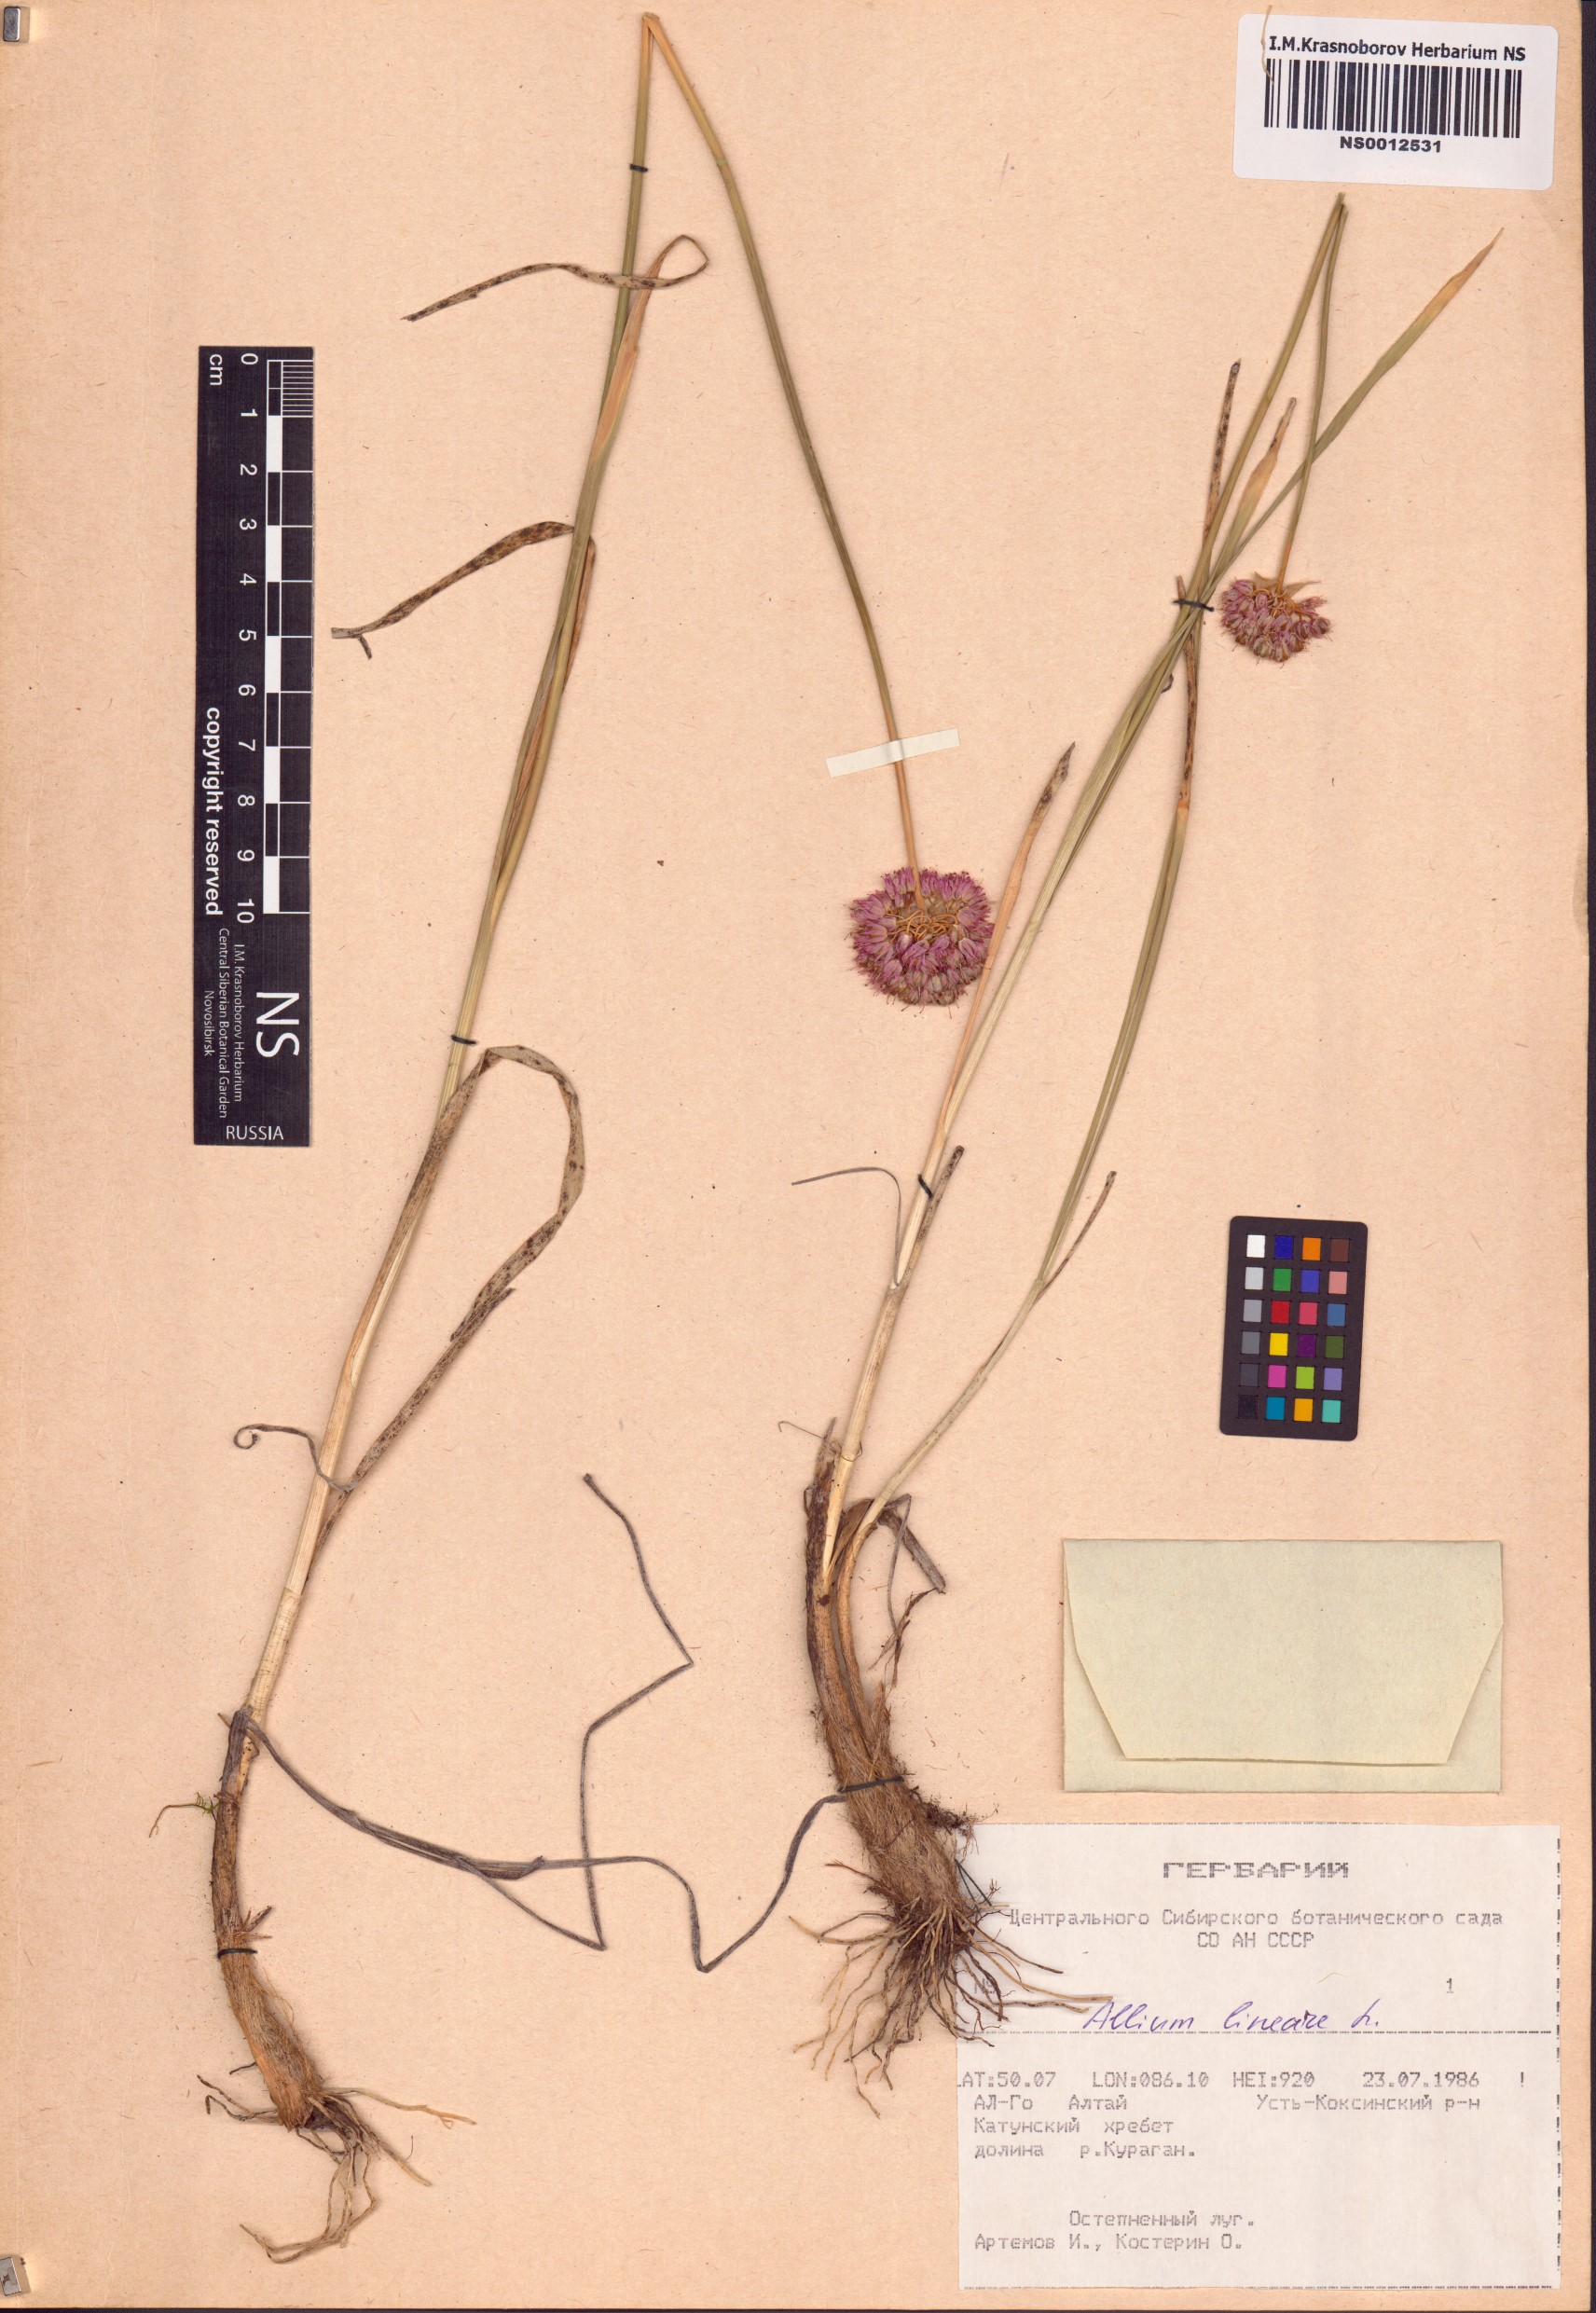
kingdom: Plantae
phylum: Tracheophyta
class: Liliopsida
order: Asparagales
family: Amaryllidaceae
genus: Allium
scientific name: Allium lineare
